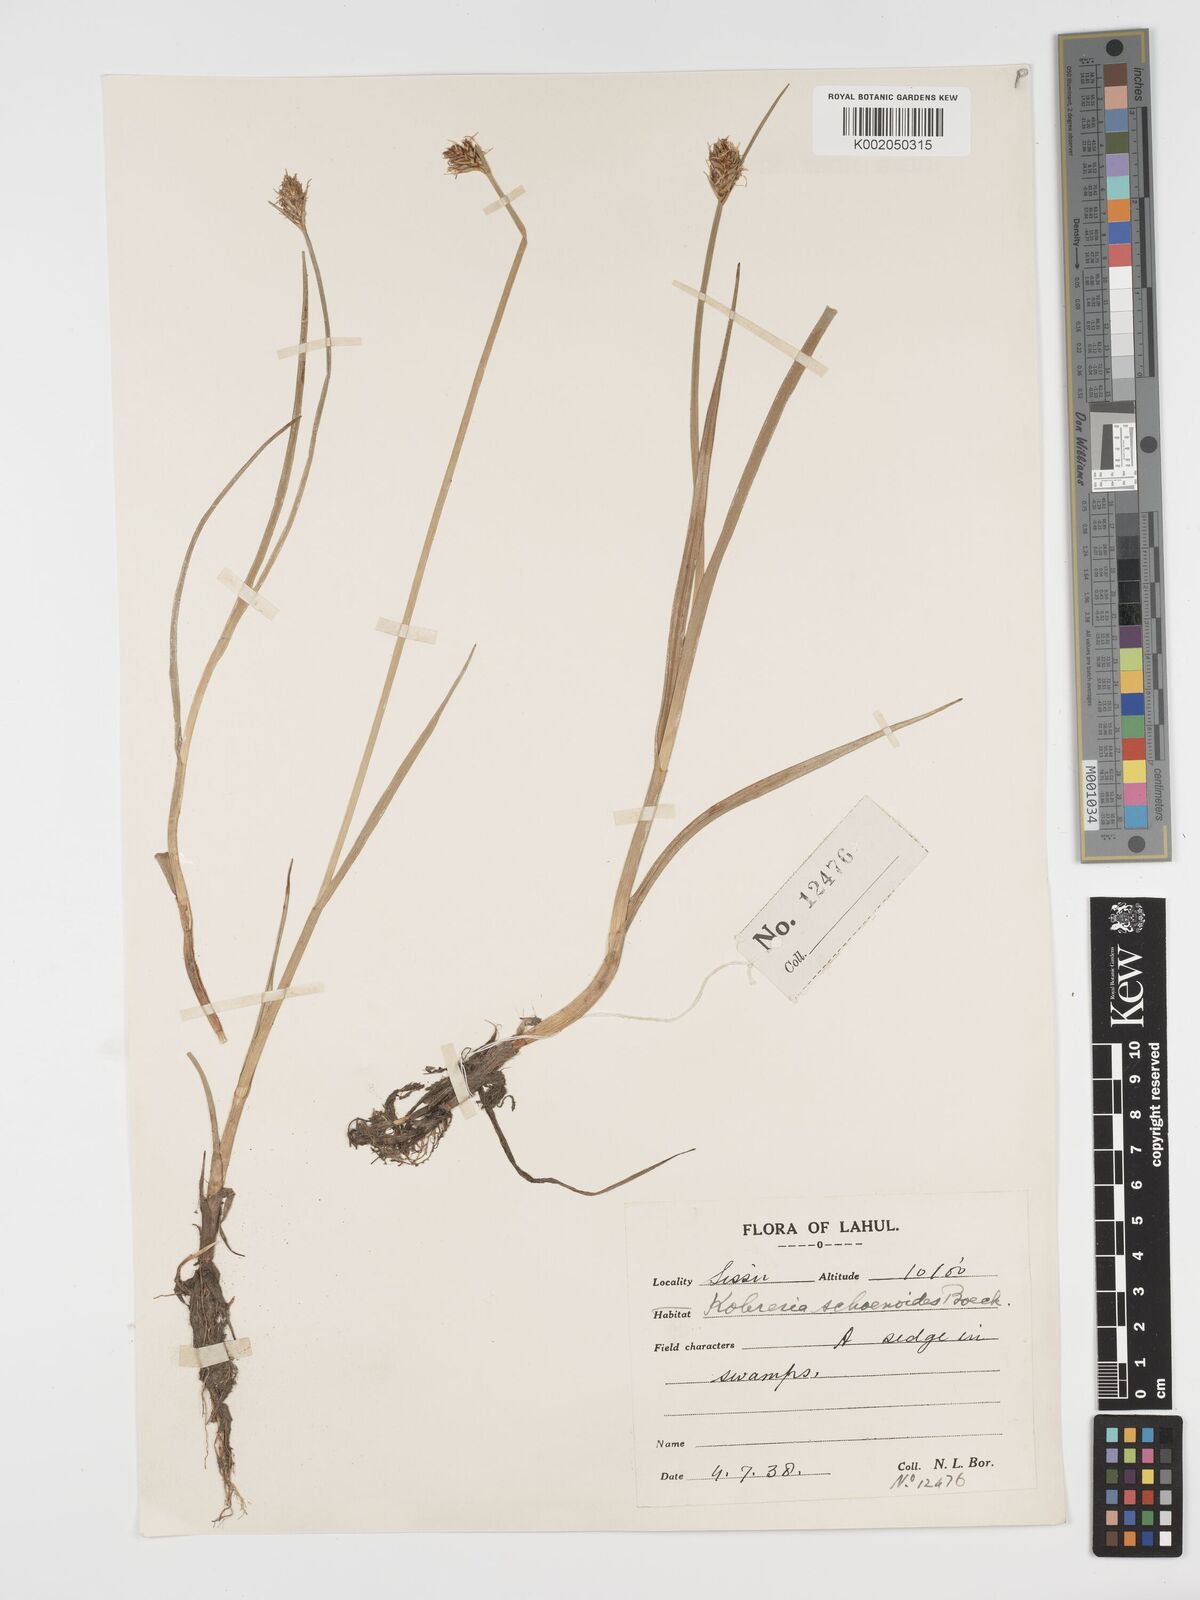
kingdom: Plantae
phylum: Tracheophyta
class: Liliopsida
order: Poales
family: Cyperaceae
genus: Blysmus
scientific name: Blysmus compressus
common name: Flat-sedge
